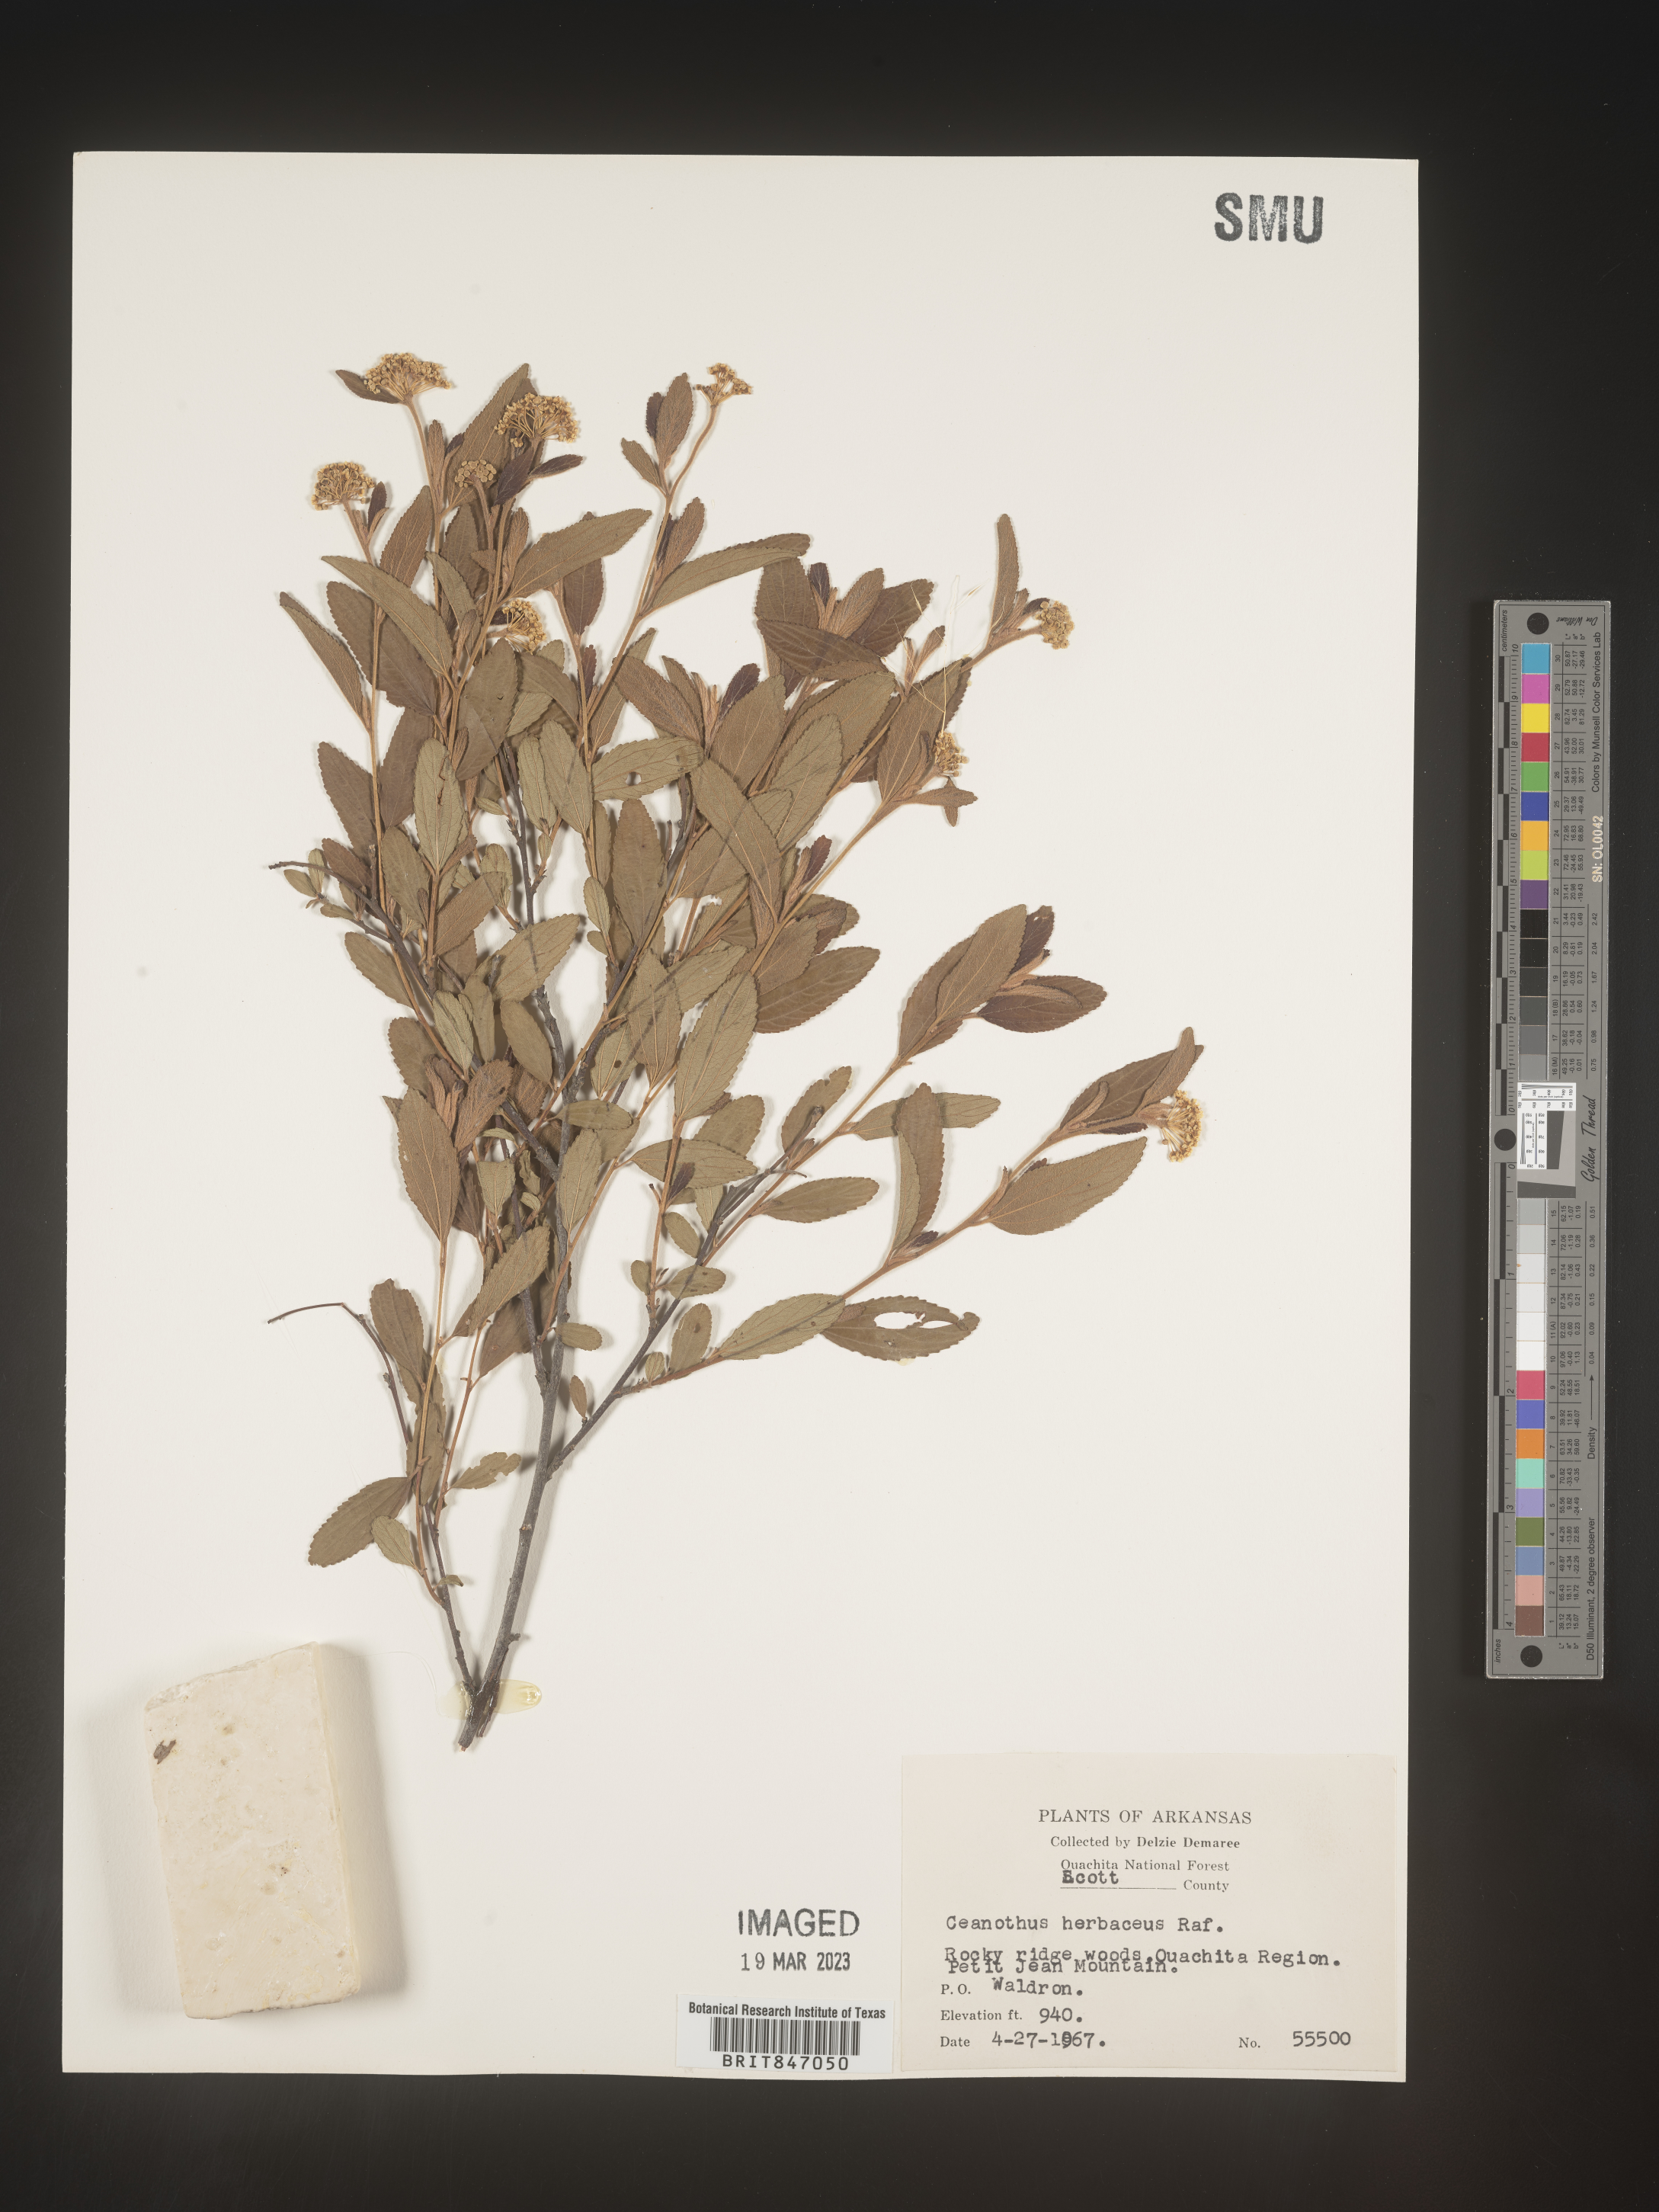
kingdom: Plantae
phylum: Tracheophyta
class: Magnoliopsida
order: Rosales
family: Rhamnaceae
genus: Ceanothus
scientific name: Ceanothus herbaceus
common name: Inland ceanothus
